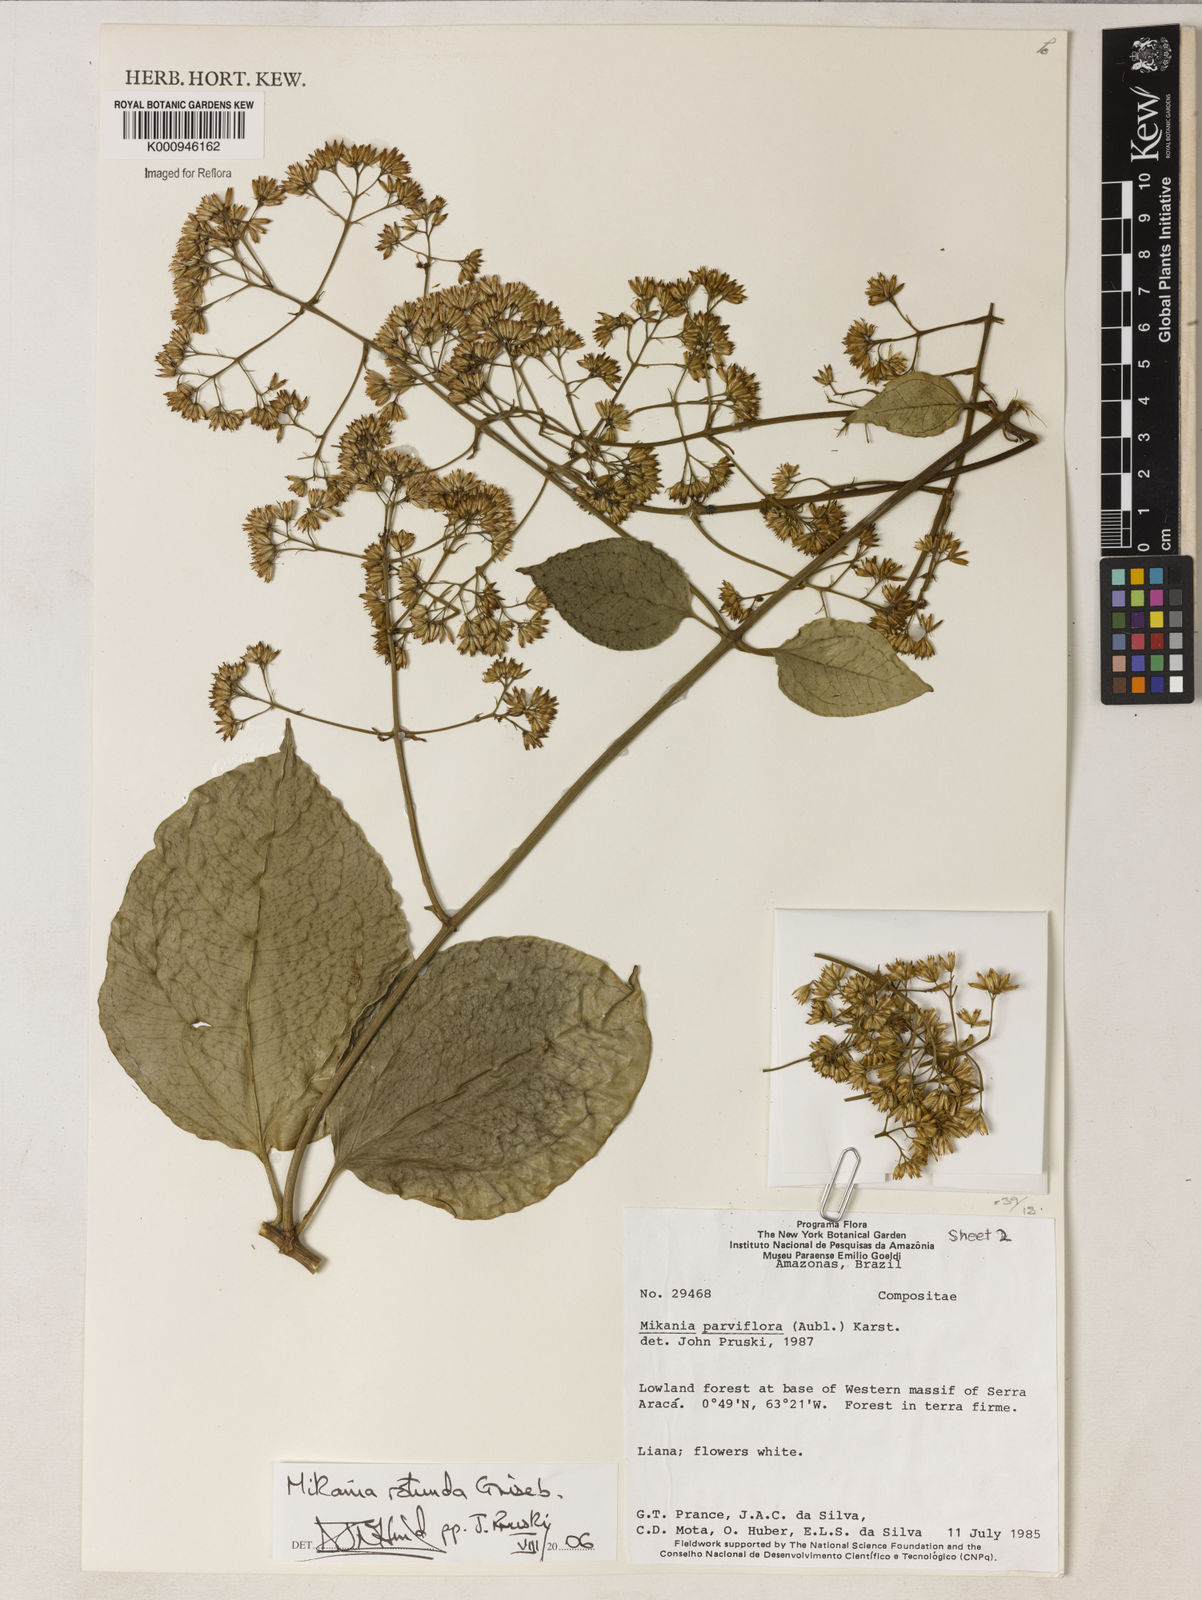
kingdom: Plantae
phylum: Tracheophyta
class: Magnoliopsida
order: Asterales
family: Asteraceae
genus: Mikania
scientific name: Mikania psilostachya
